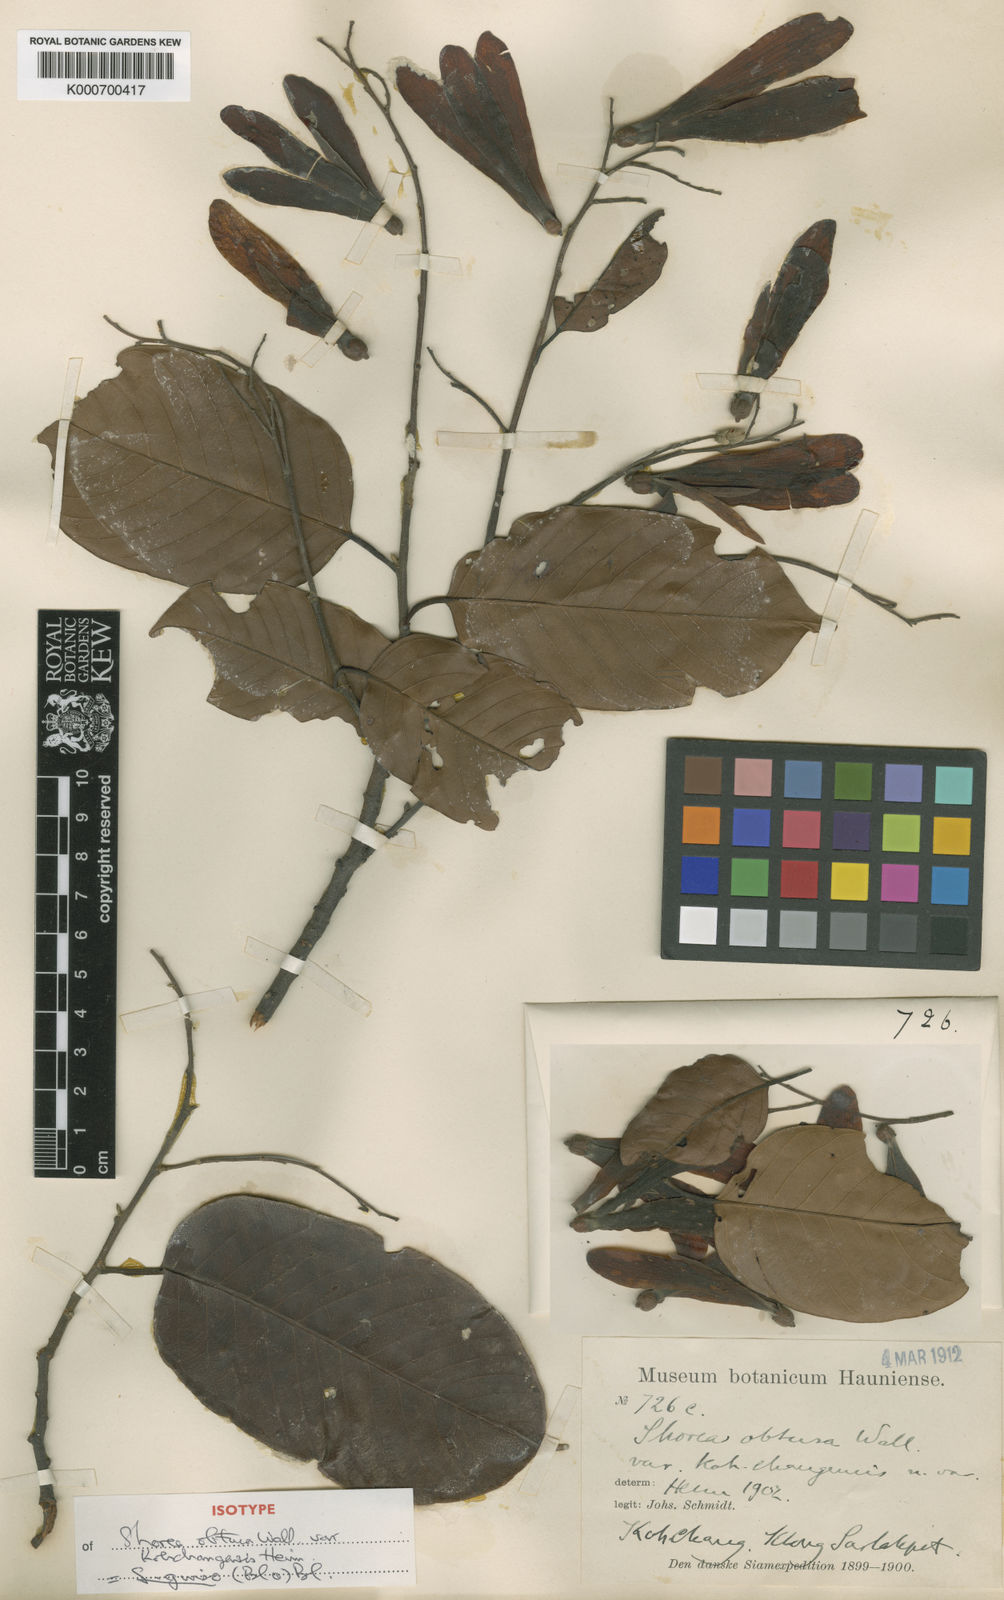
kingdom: Plantae
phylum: Tracheophyta
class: Magnoliopsida
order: Malvales
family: Dipterocarpaceae
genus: Shorea
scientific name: Shorea guiso
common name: Red balau
